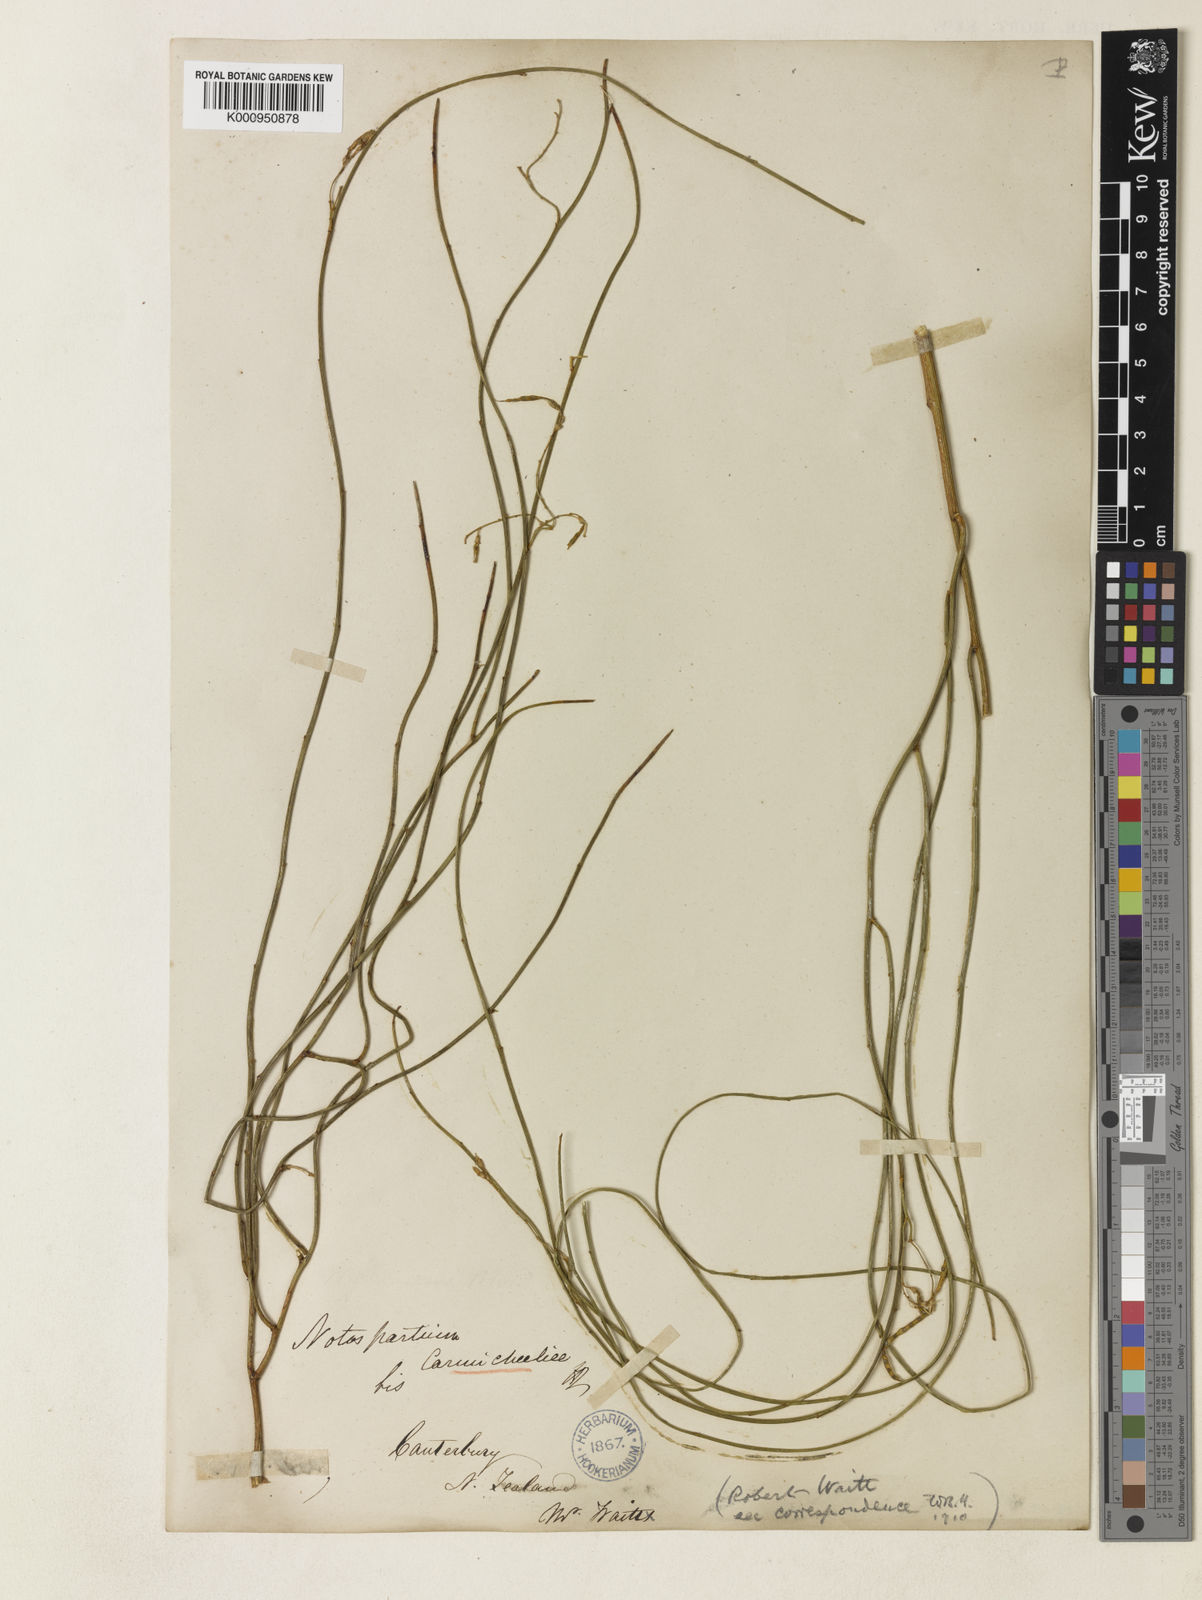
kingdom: Plantae
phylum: Tracheophyta
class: Magnoliopsida
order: Fabales
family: Fabaceae
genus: Carmichaelia
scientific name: Carmichaelia carmichaeliae
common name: Pink-broom
